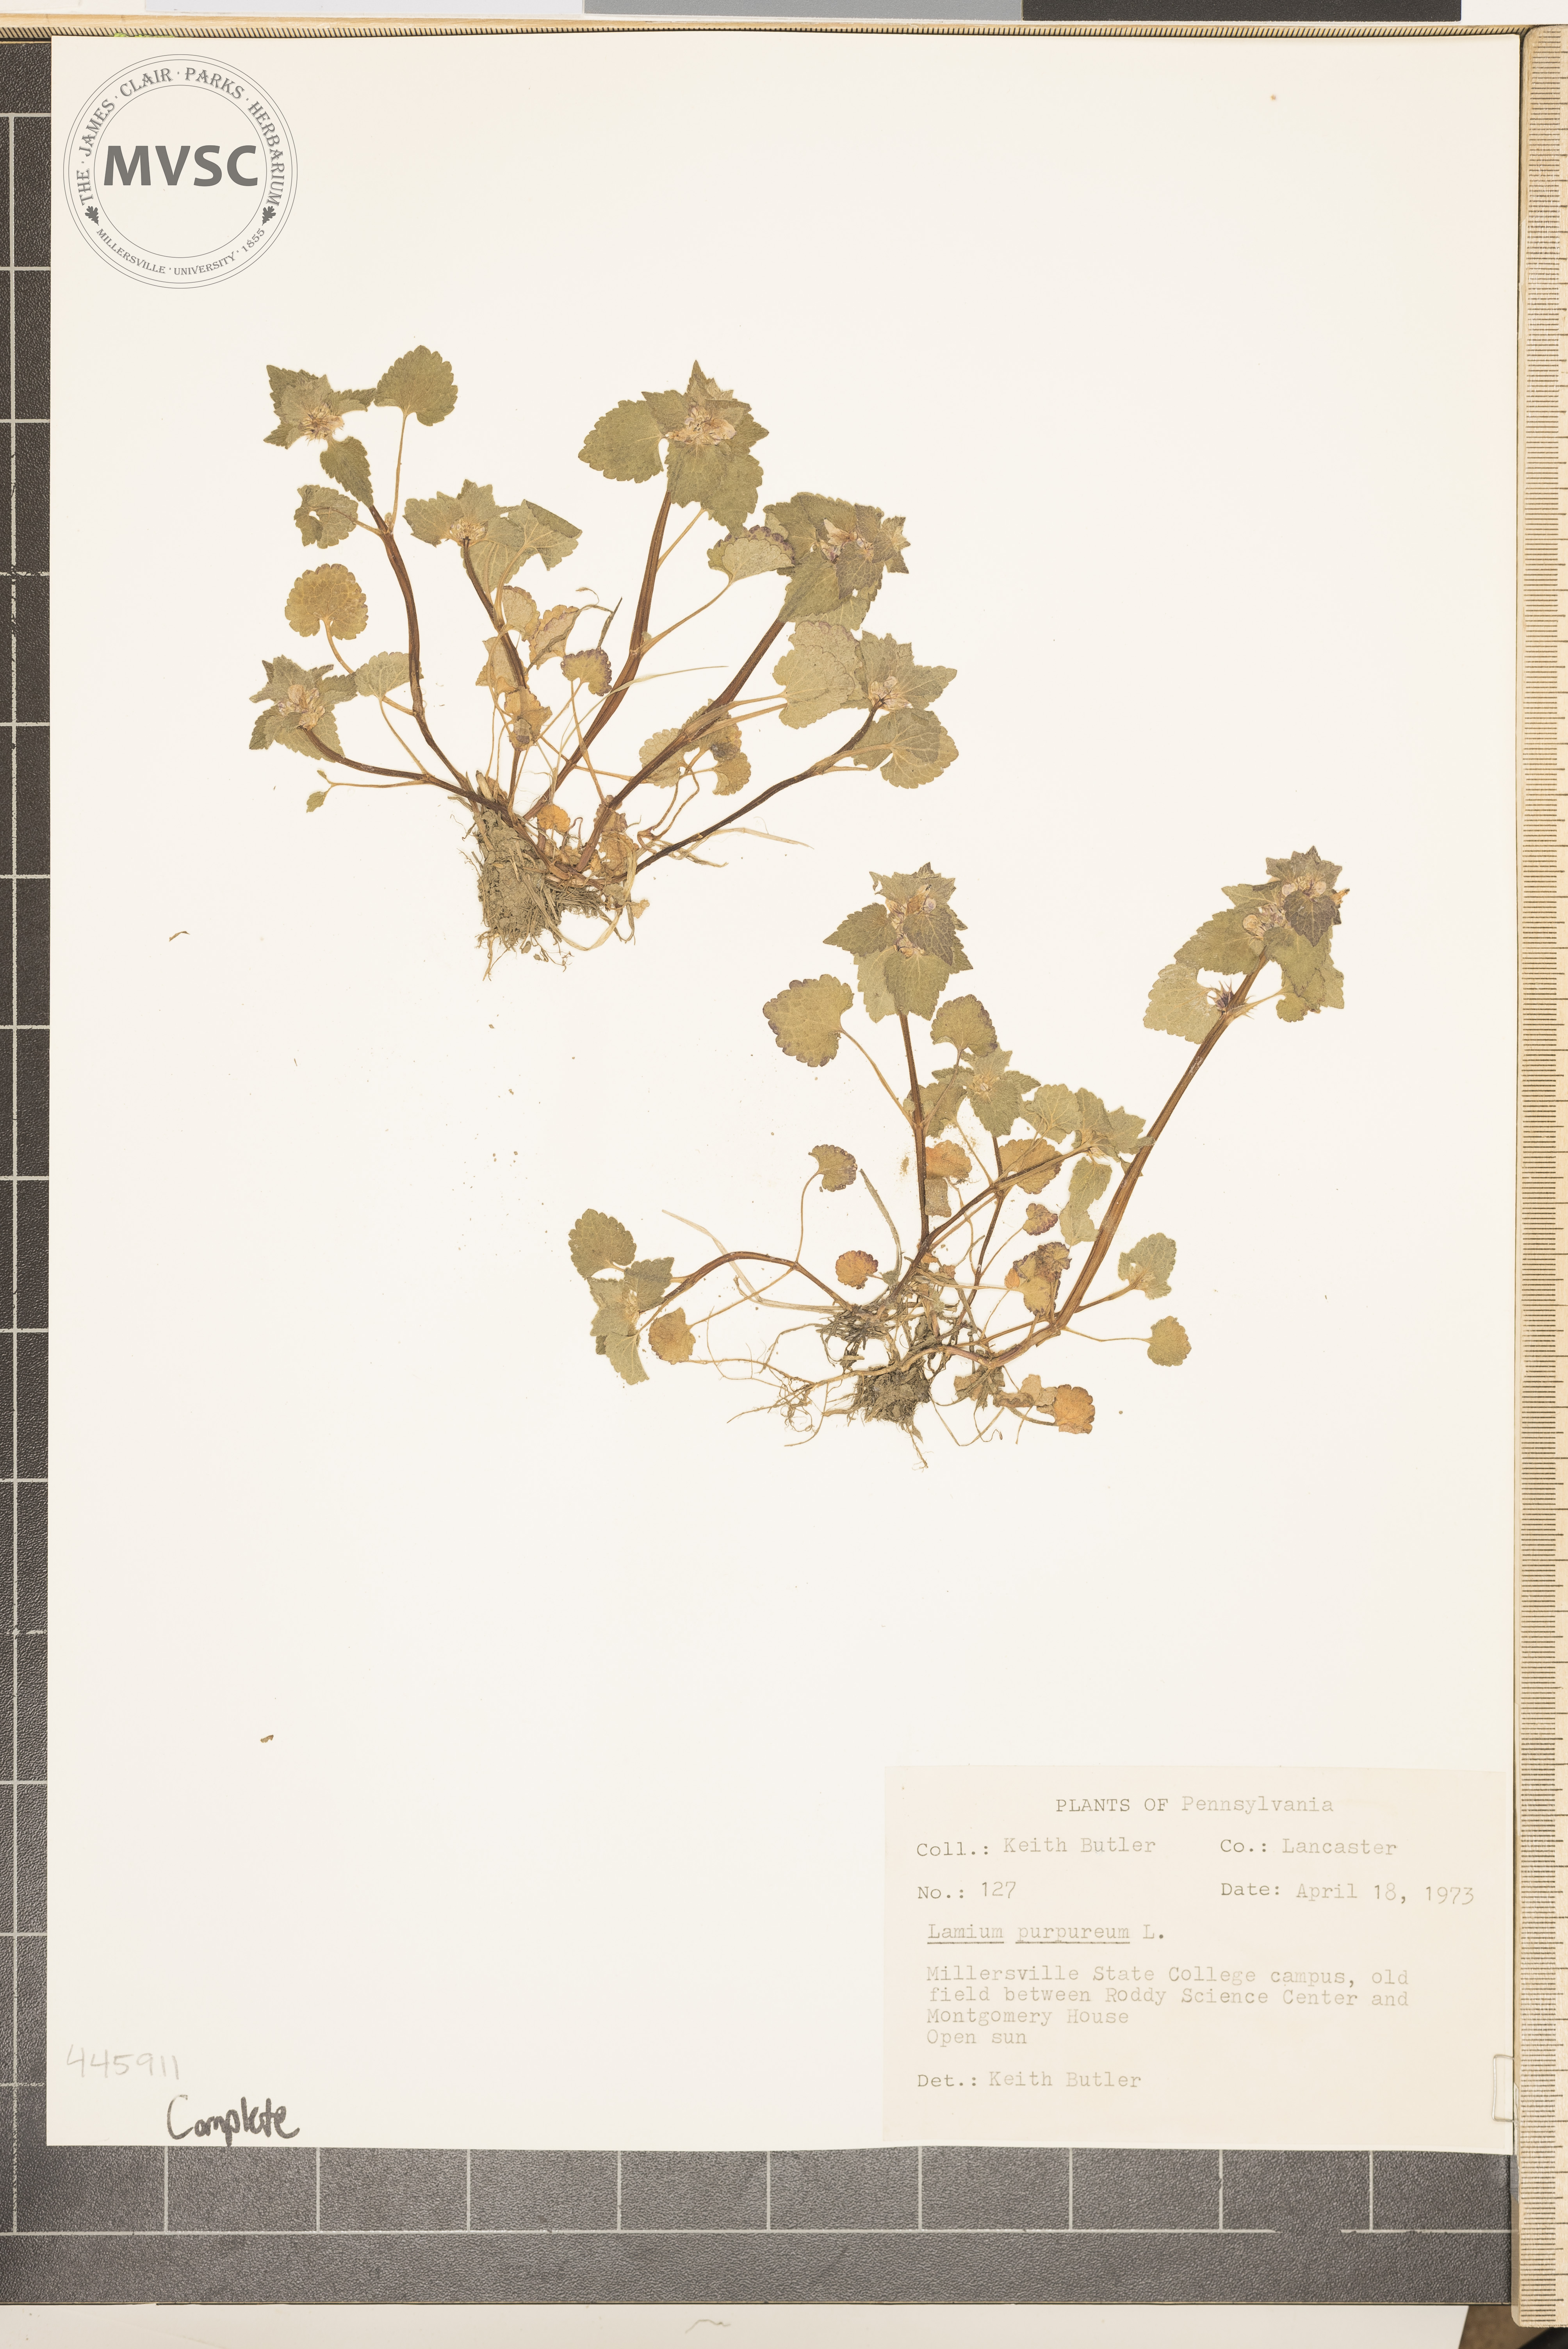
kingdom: Plantae
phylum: Tracheophyta
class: Magnoliopsida
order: Lamiales
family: Lamiaceae
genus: Lamium
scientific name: Lamium purpureum
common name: Red dead-nettle
